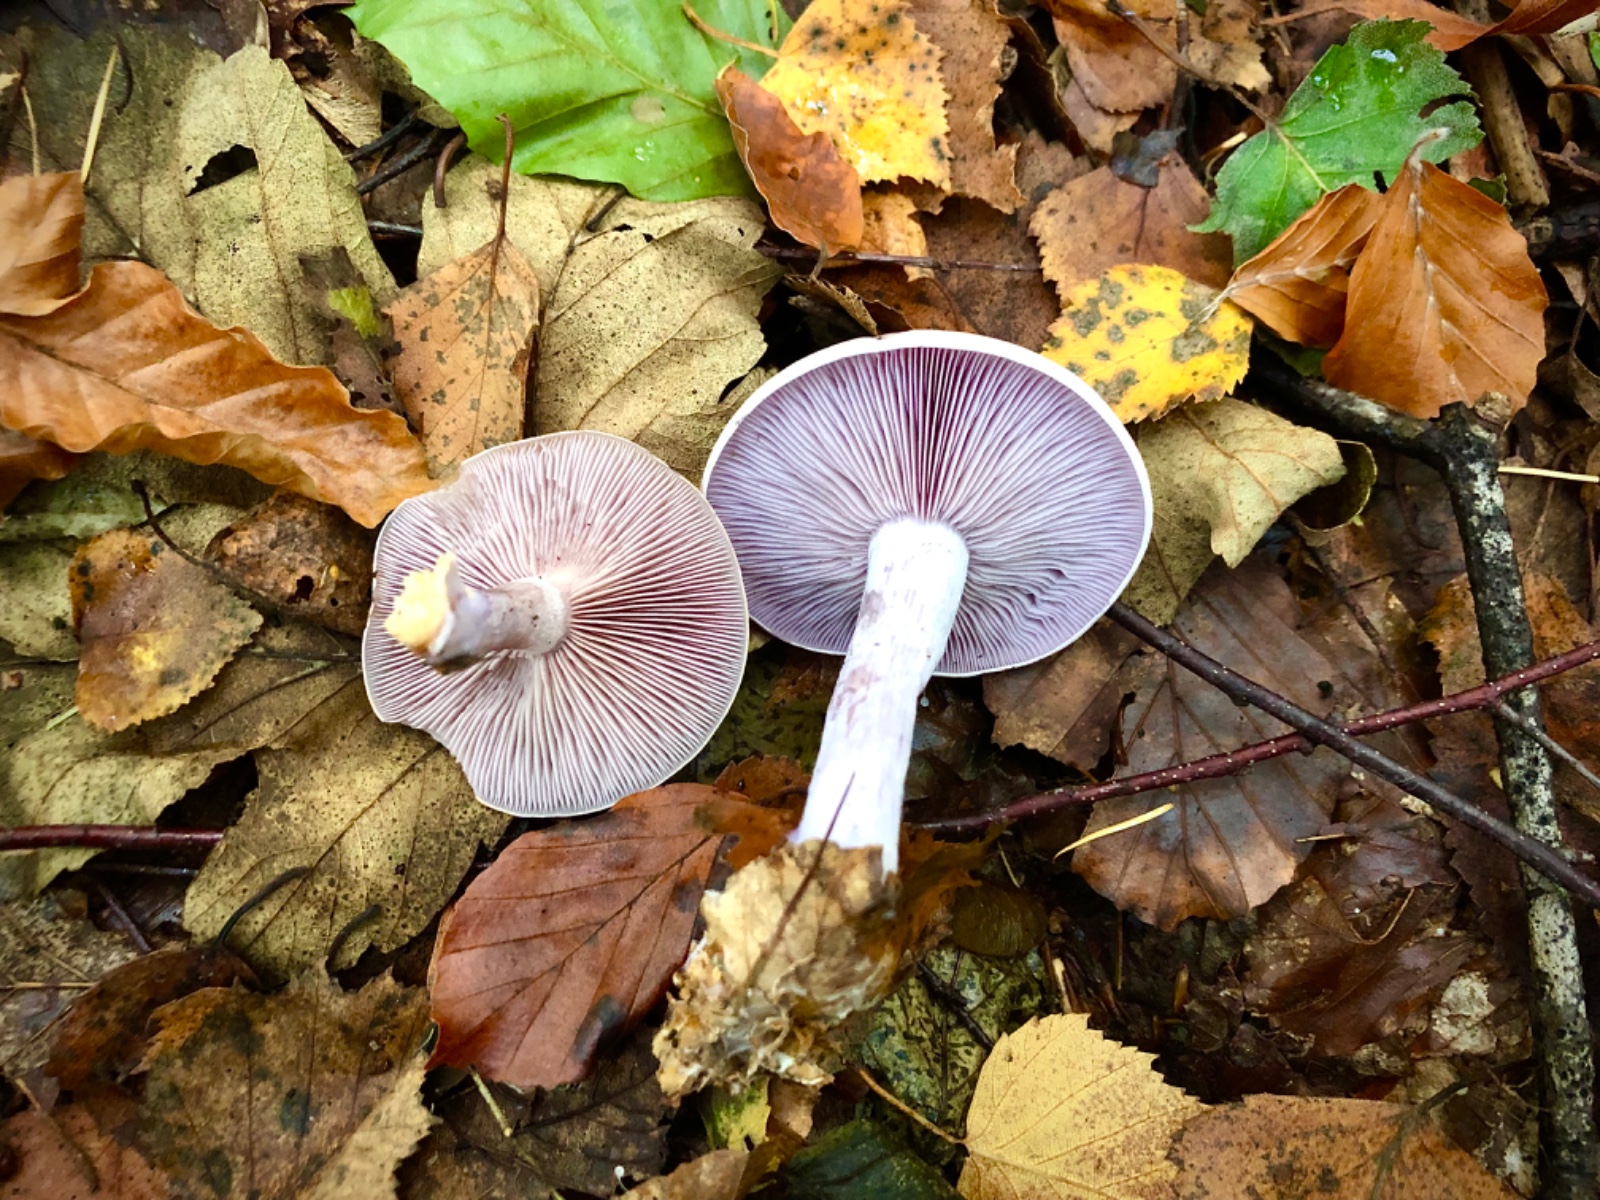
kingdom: Fungi
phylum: Basidiomycota
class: Agaricomycetes
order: Agaricales
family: Tricholomataceae
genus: Lepista
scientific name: Lepista nuda
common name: violet hekseringshat
